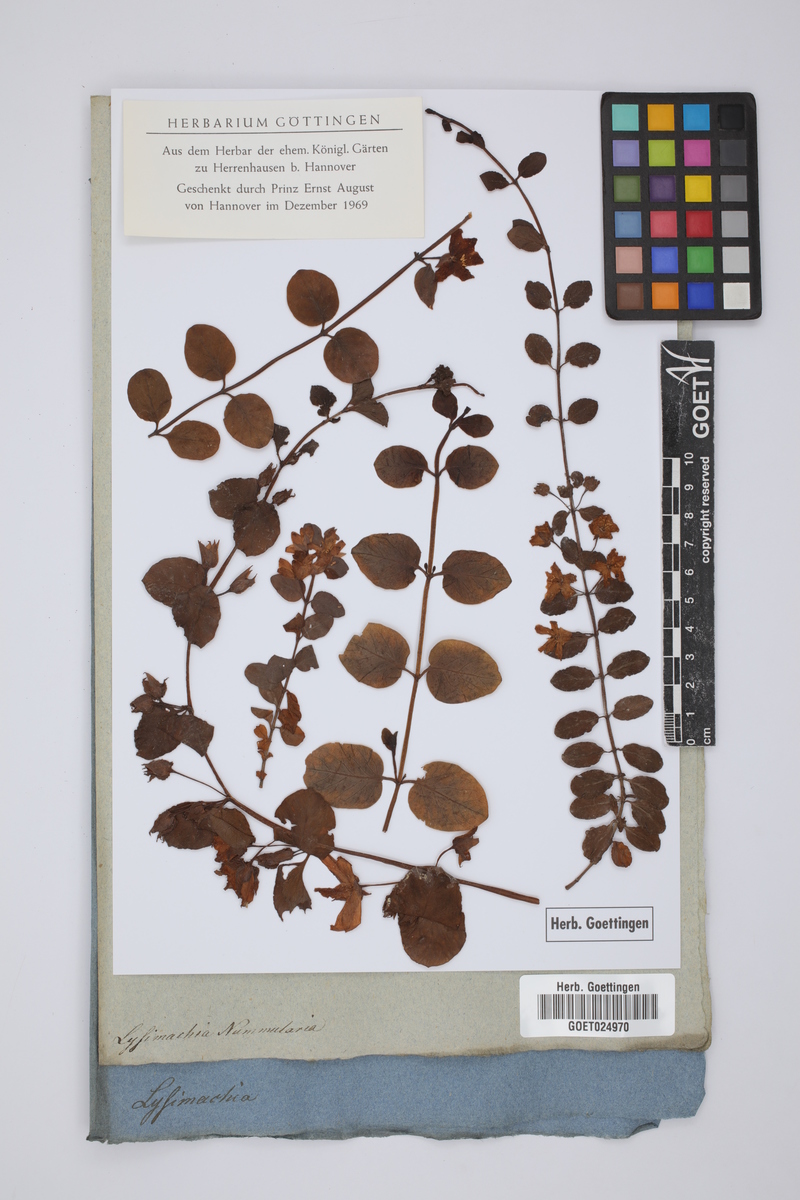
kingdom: Plantae
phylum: Tracheophyta
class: Magnoliopsida
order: Ericales
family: Primulaceae
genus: Lysimachia
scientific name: Lysimachia nummularia
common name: Moneywort
